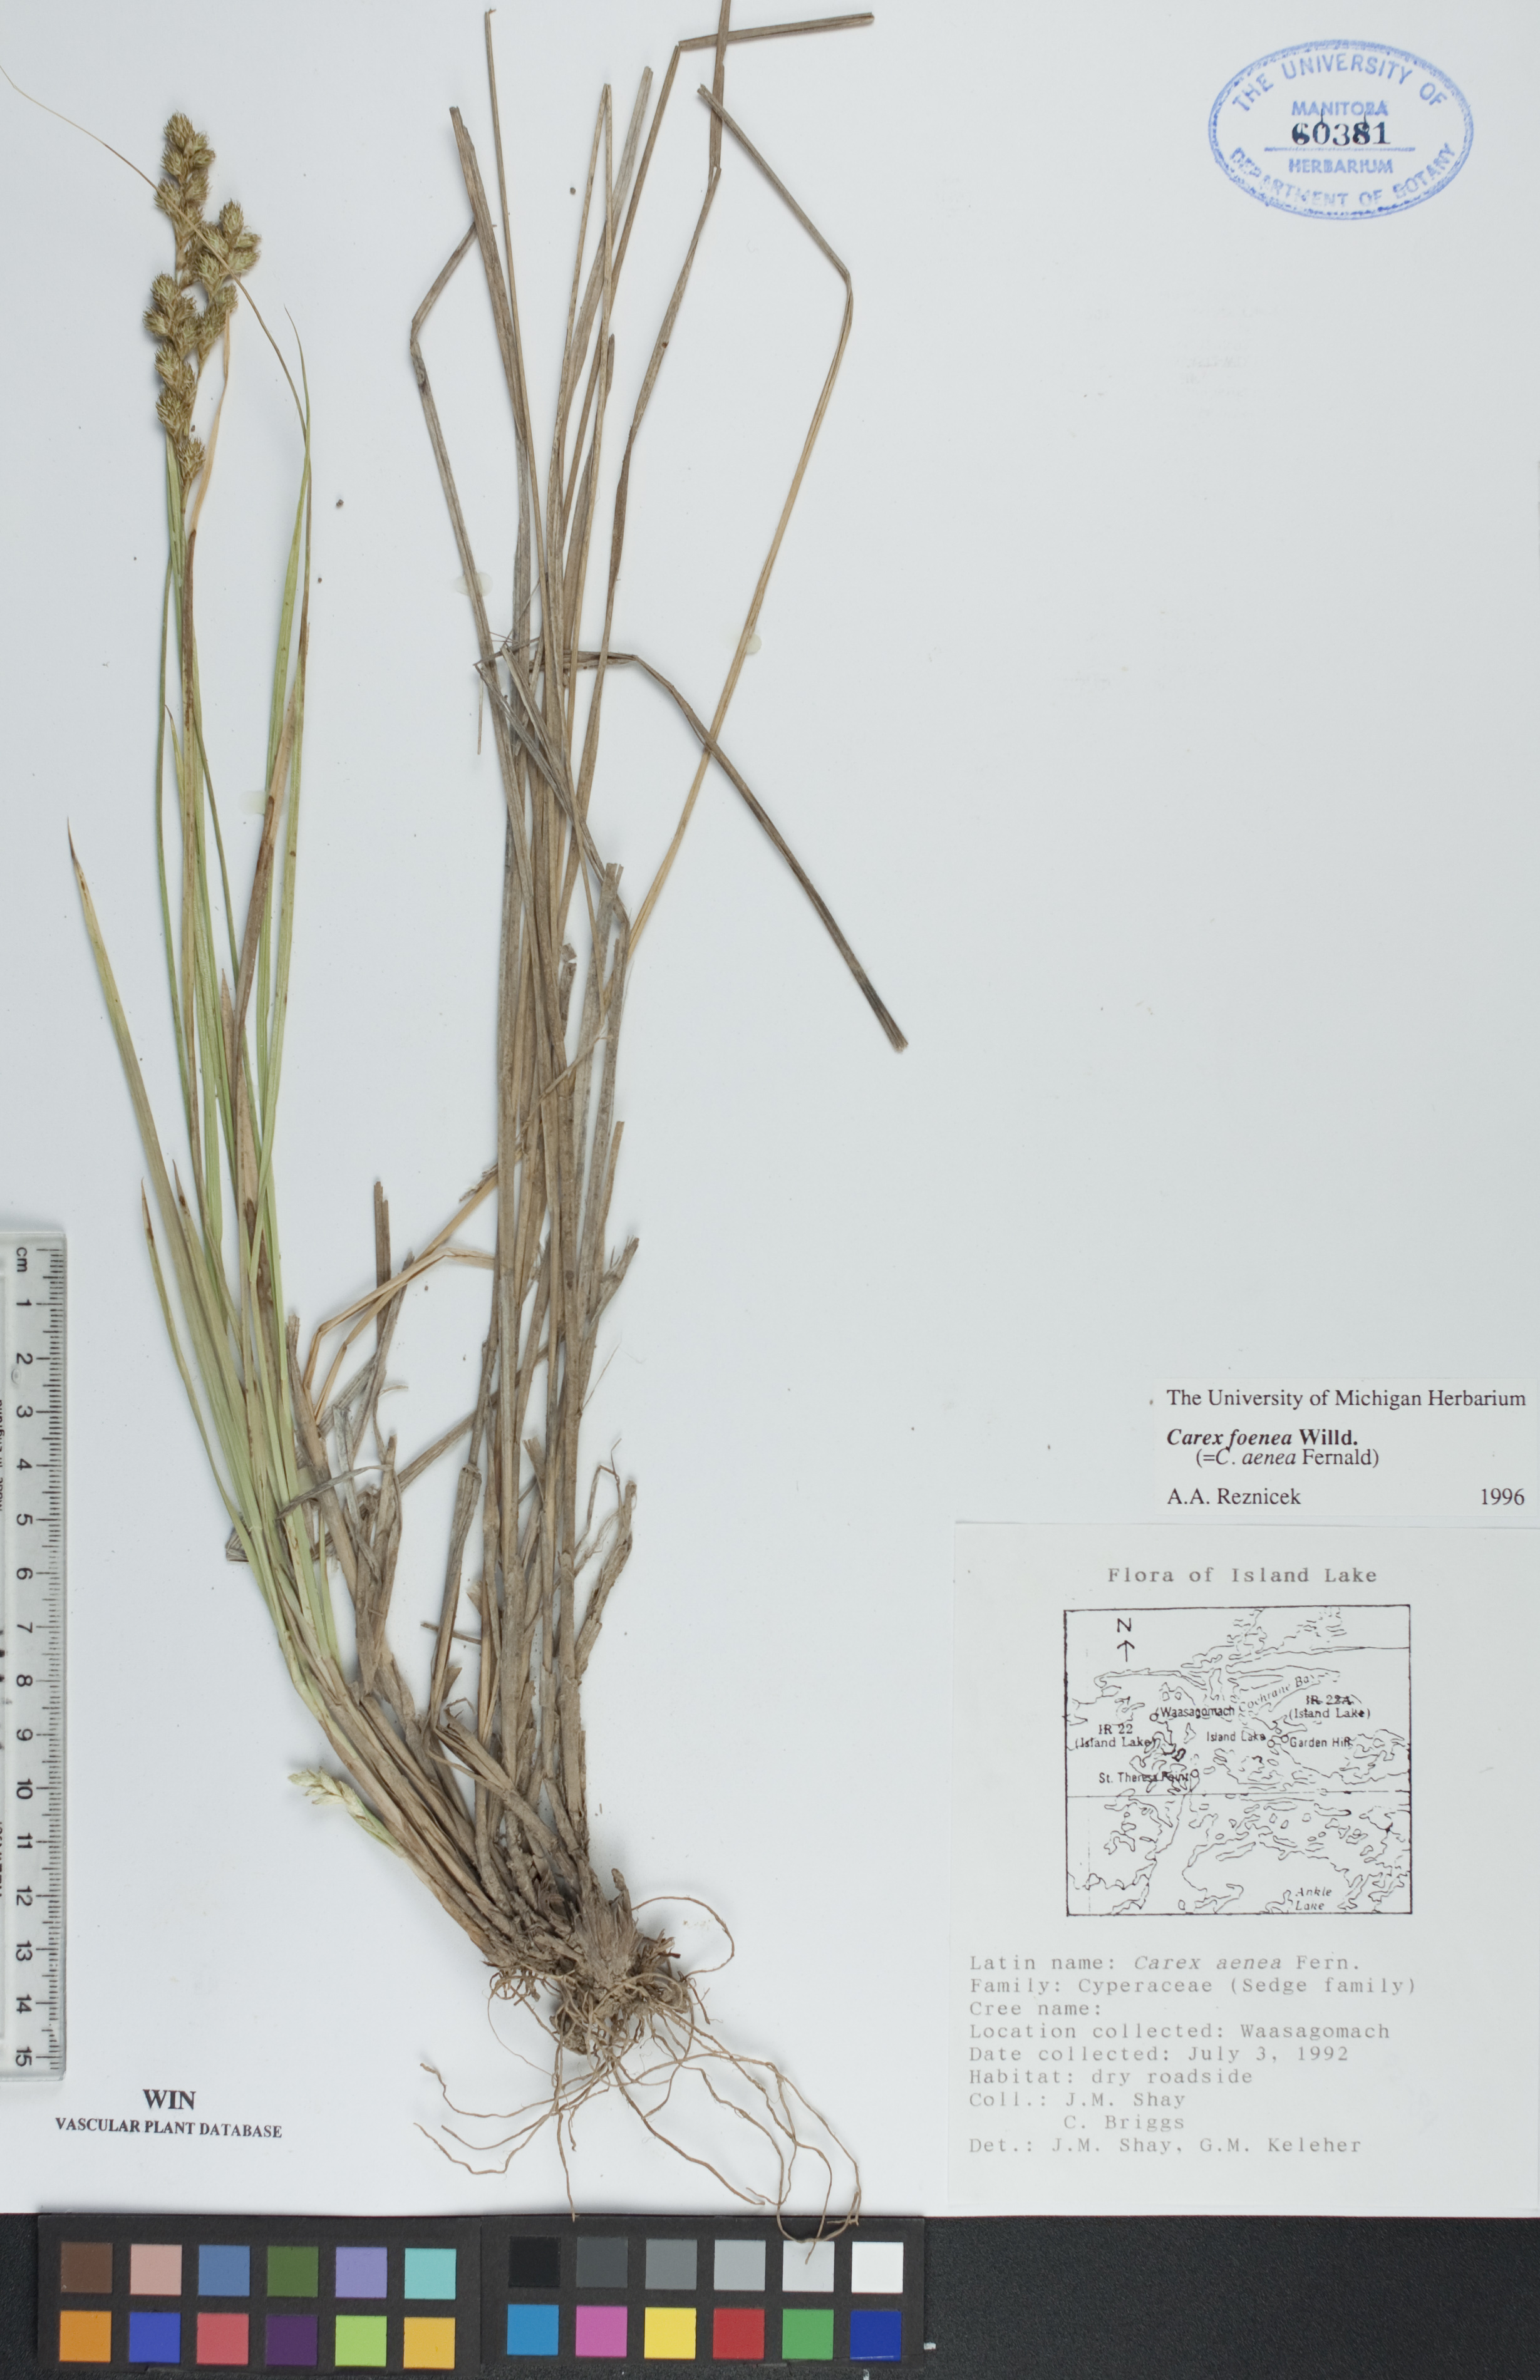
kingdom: Plantae
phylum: Tracheophyta
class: Liliopsida
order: Poales
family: Cyperaceae
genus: Carex
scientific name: Carex foenea
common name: Bronze sedge
